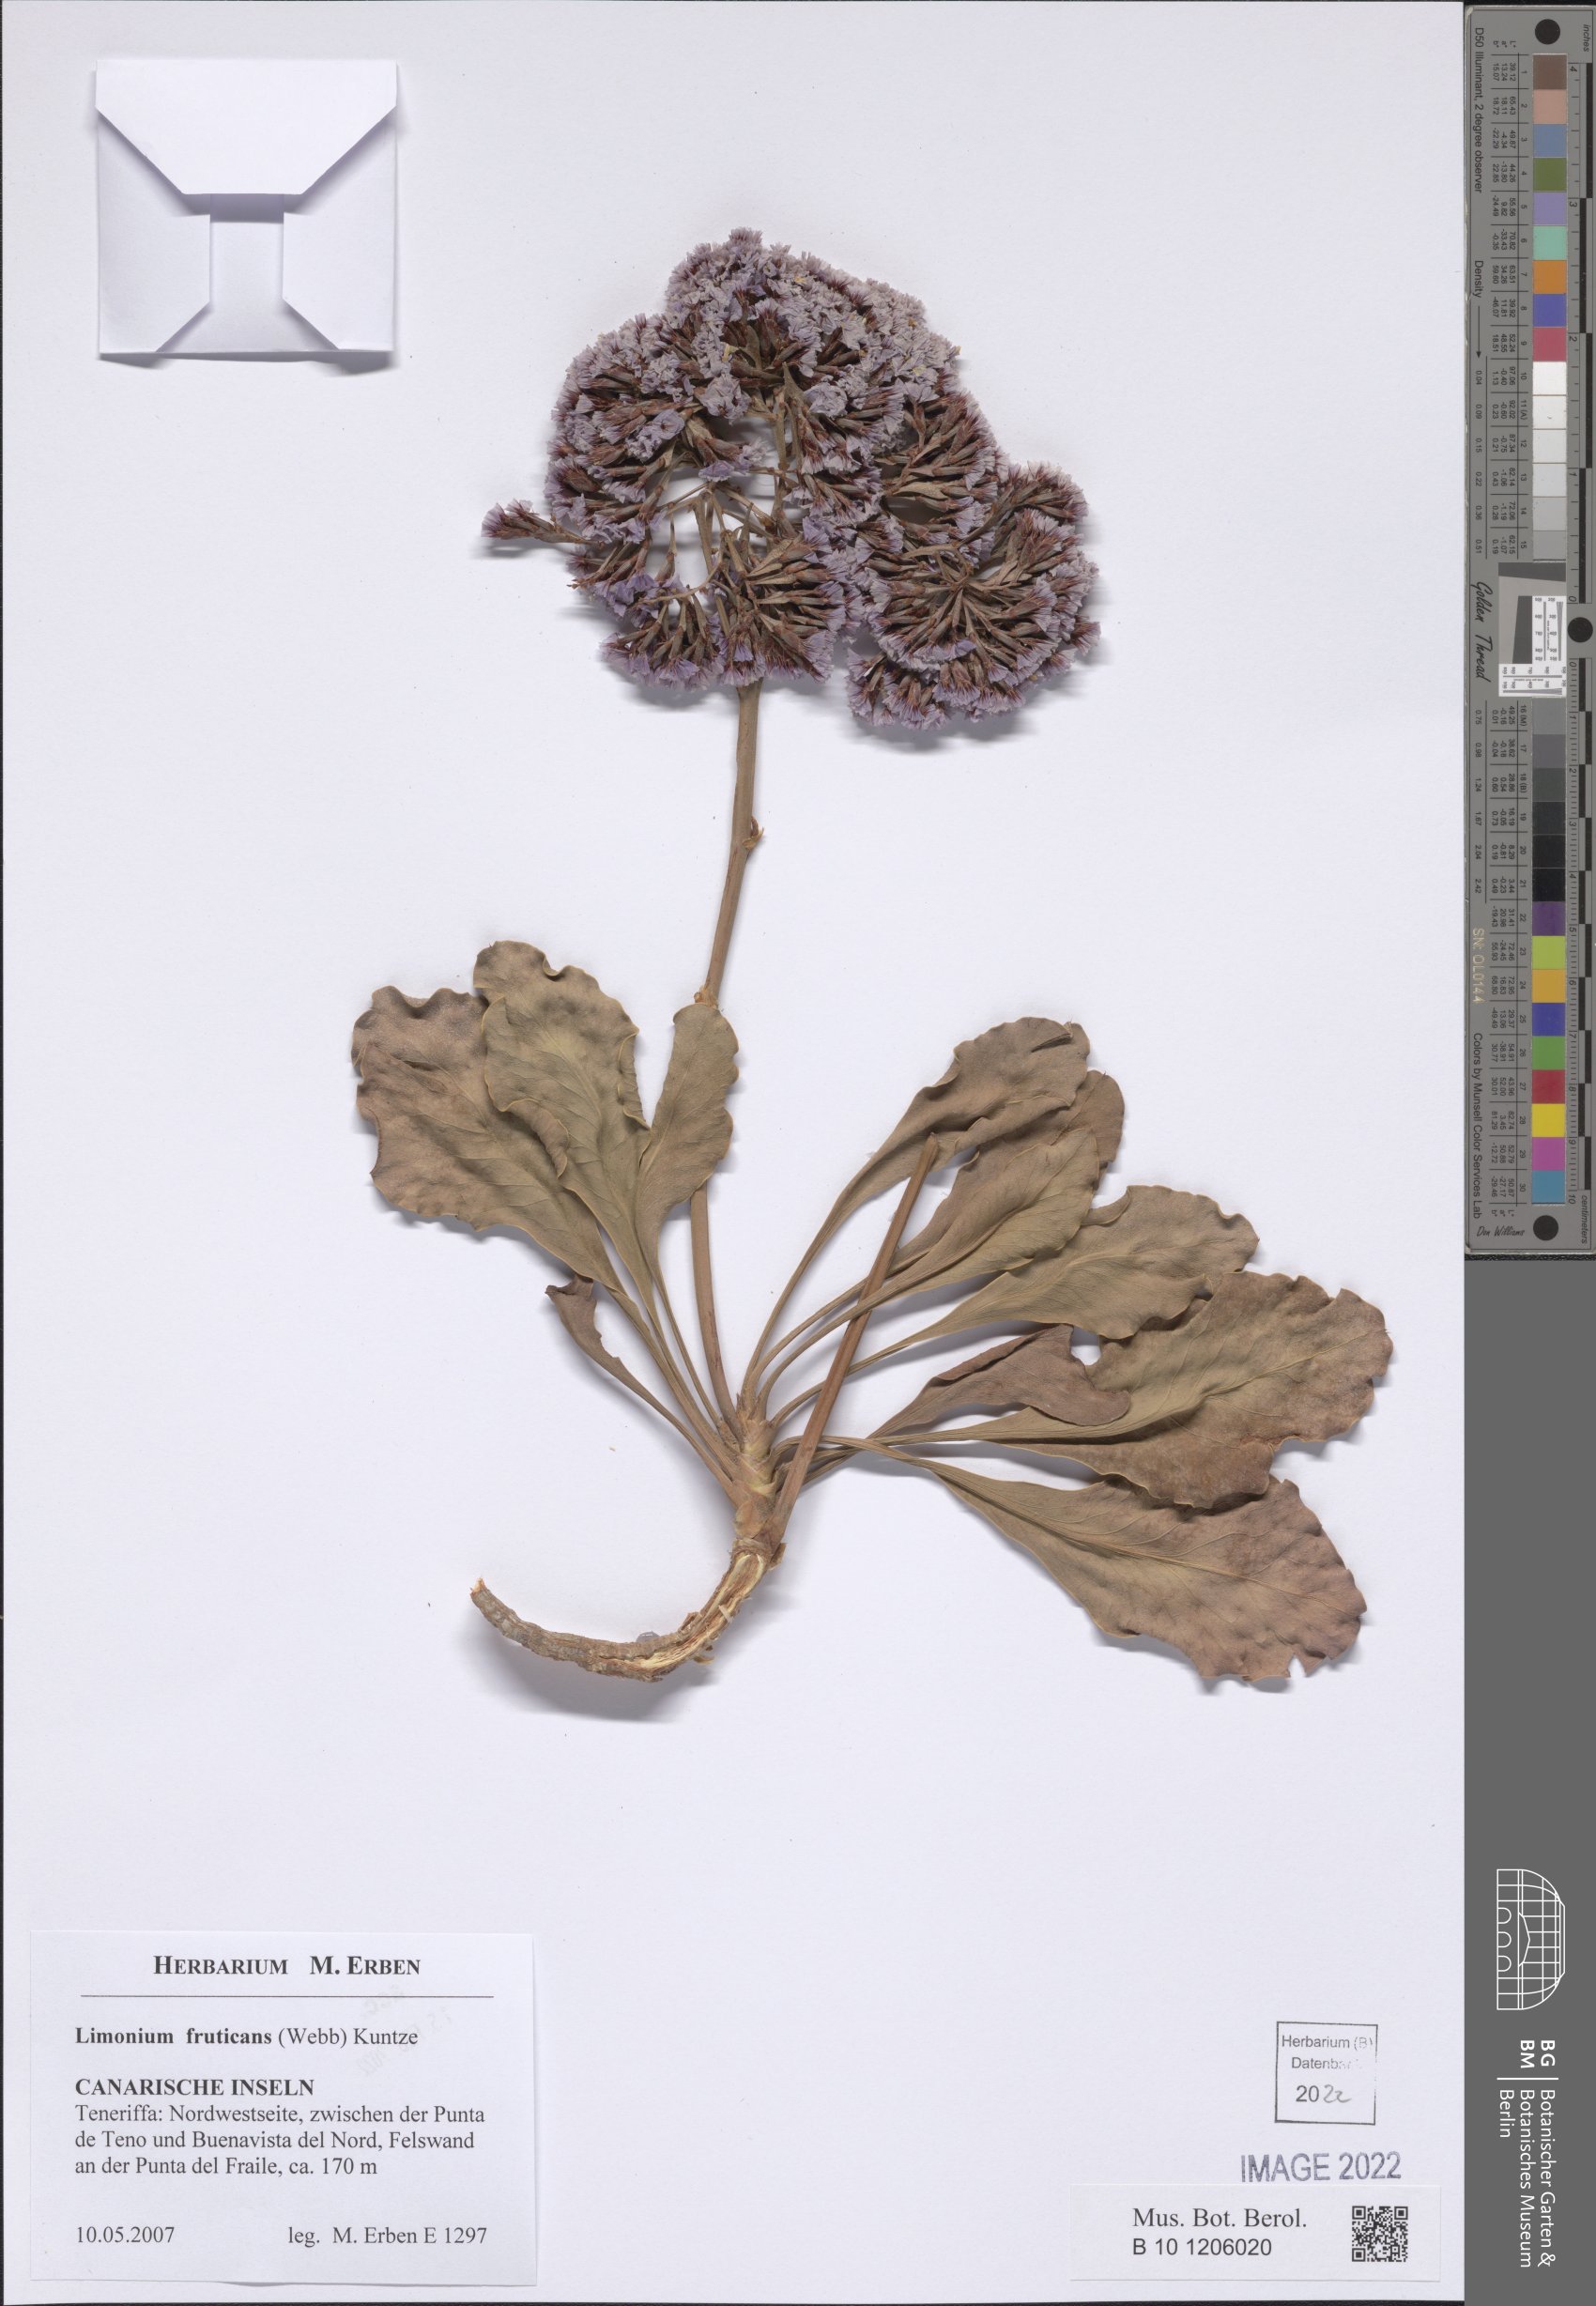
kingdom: Plantae
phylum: Tracheophyta
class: Magnoliopsida
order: Caryophyllales
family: Plumbaginaceae
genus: Limonium
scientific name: Limonium frutescens
